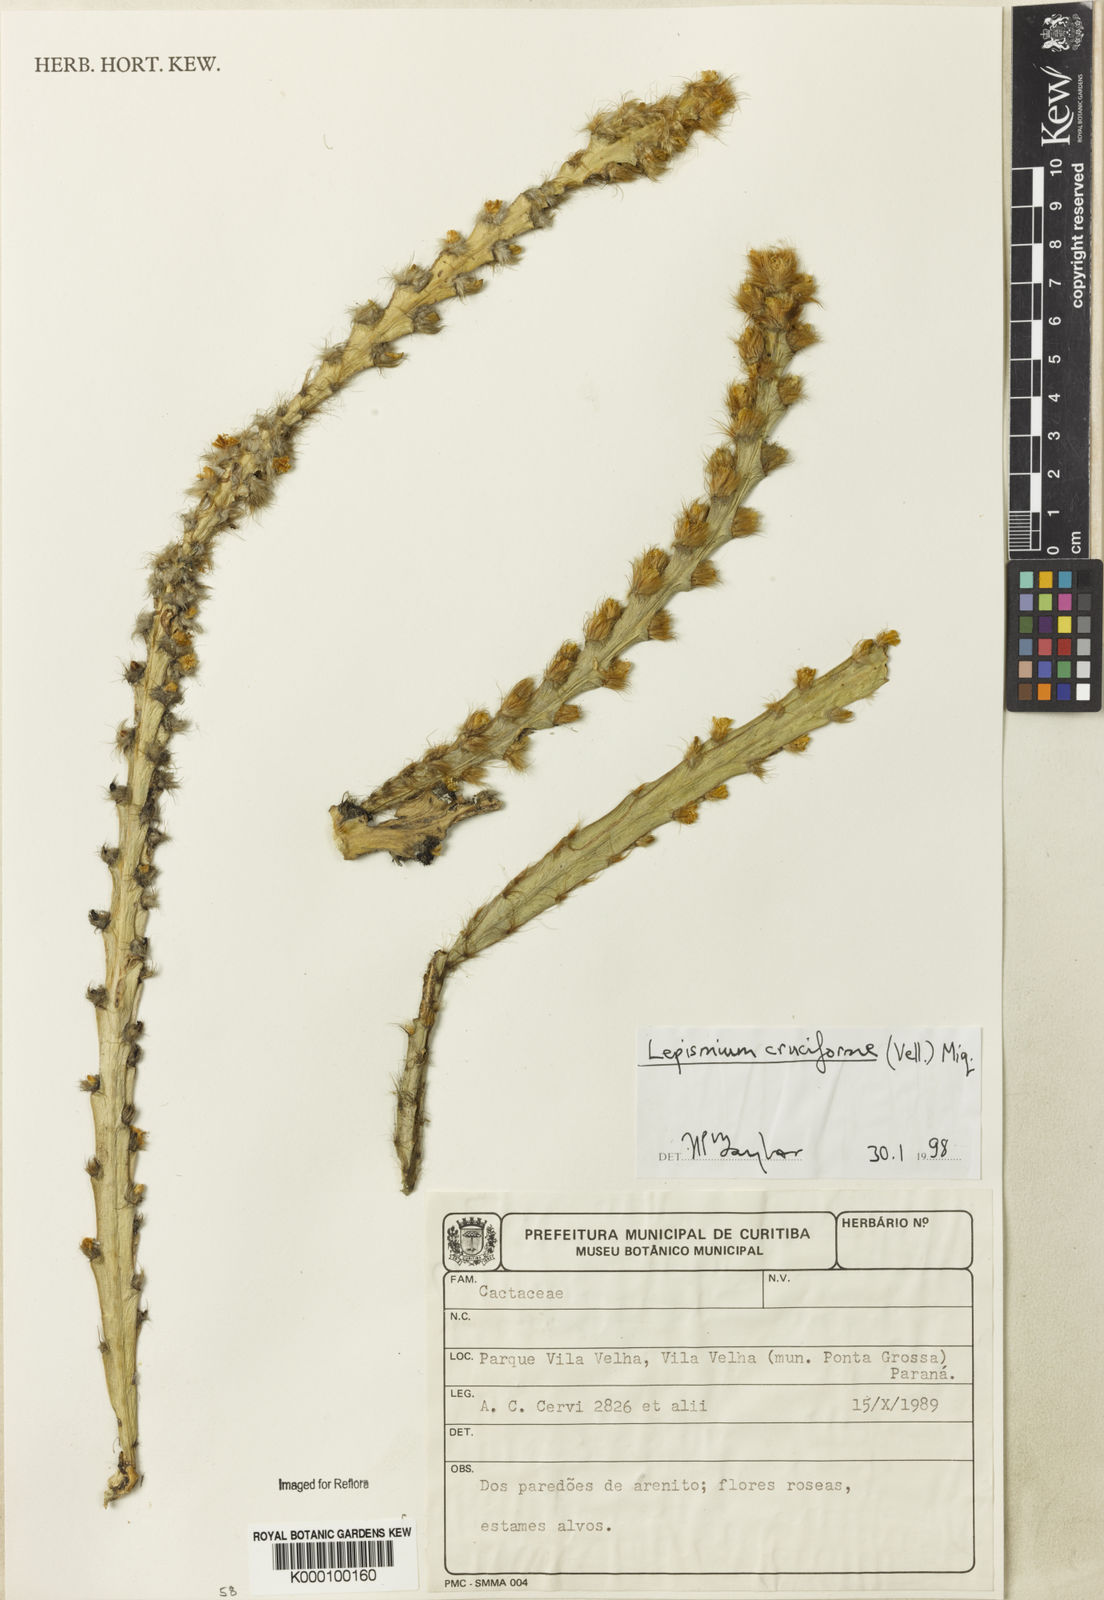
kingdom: Plantae
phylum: Tracheophyta
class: Magnoliopsida
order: Caryophyllales
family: Cactaceae
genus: Lepismium
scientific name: Lepismium cruciforme
